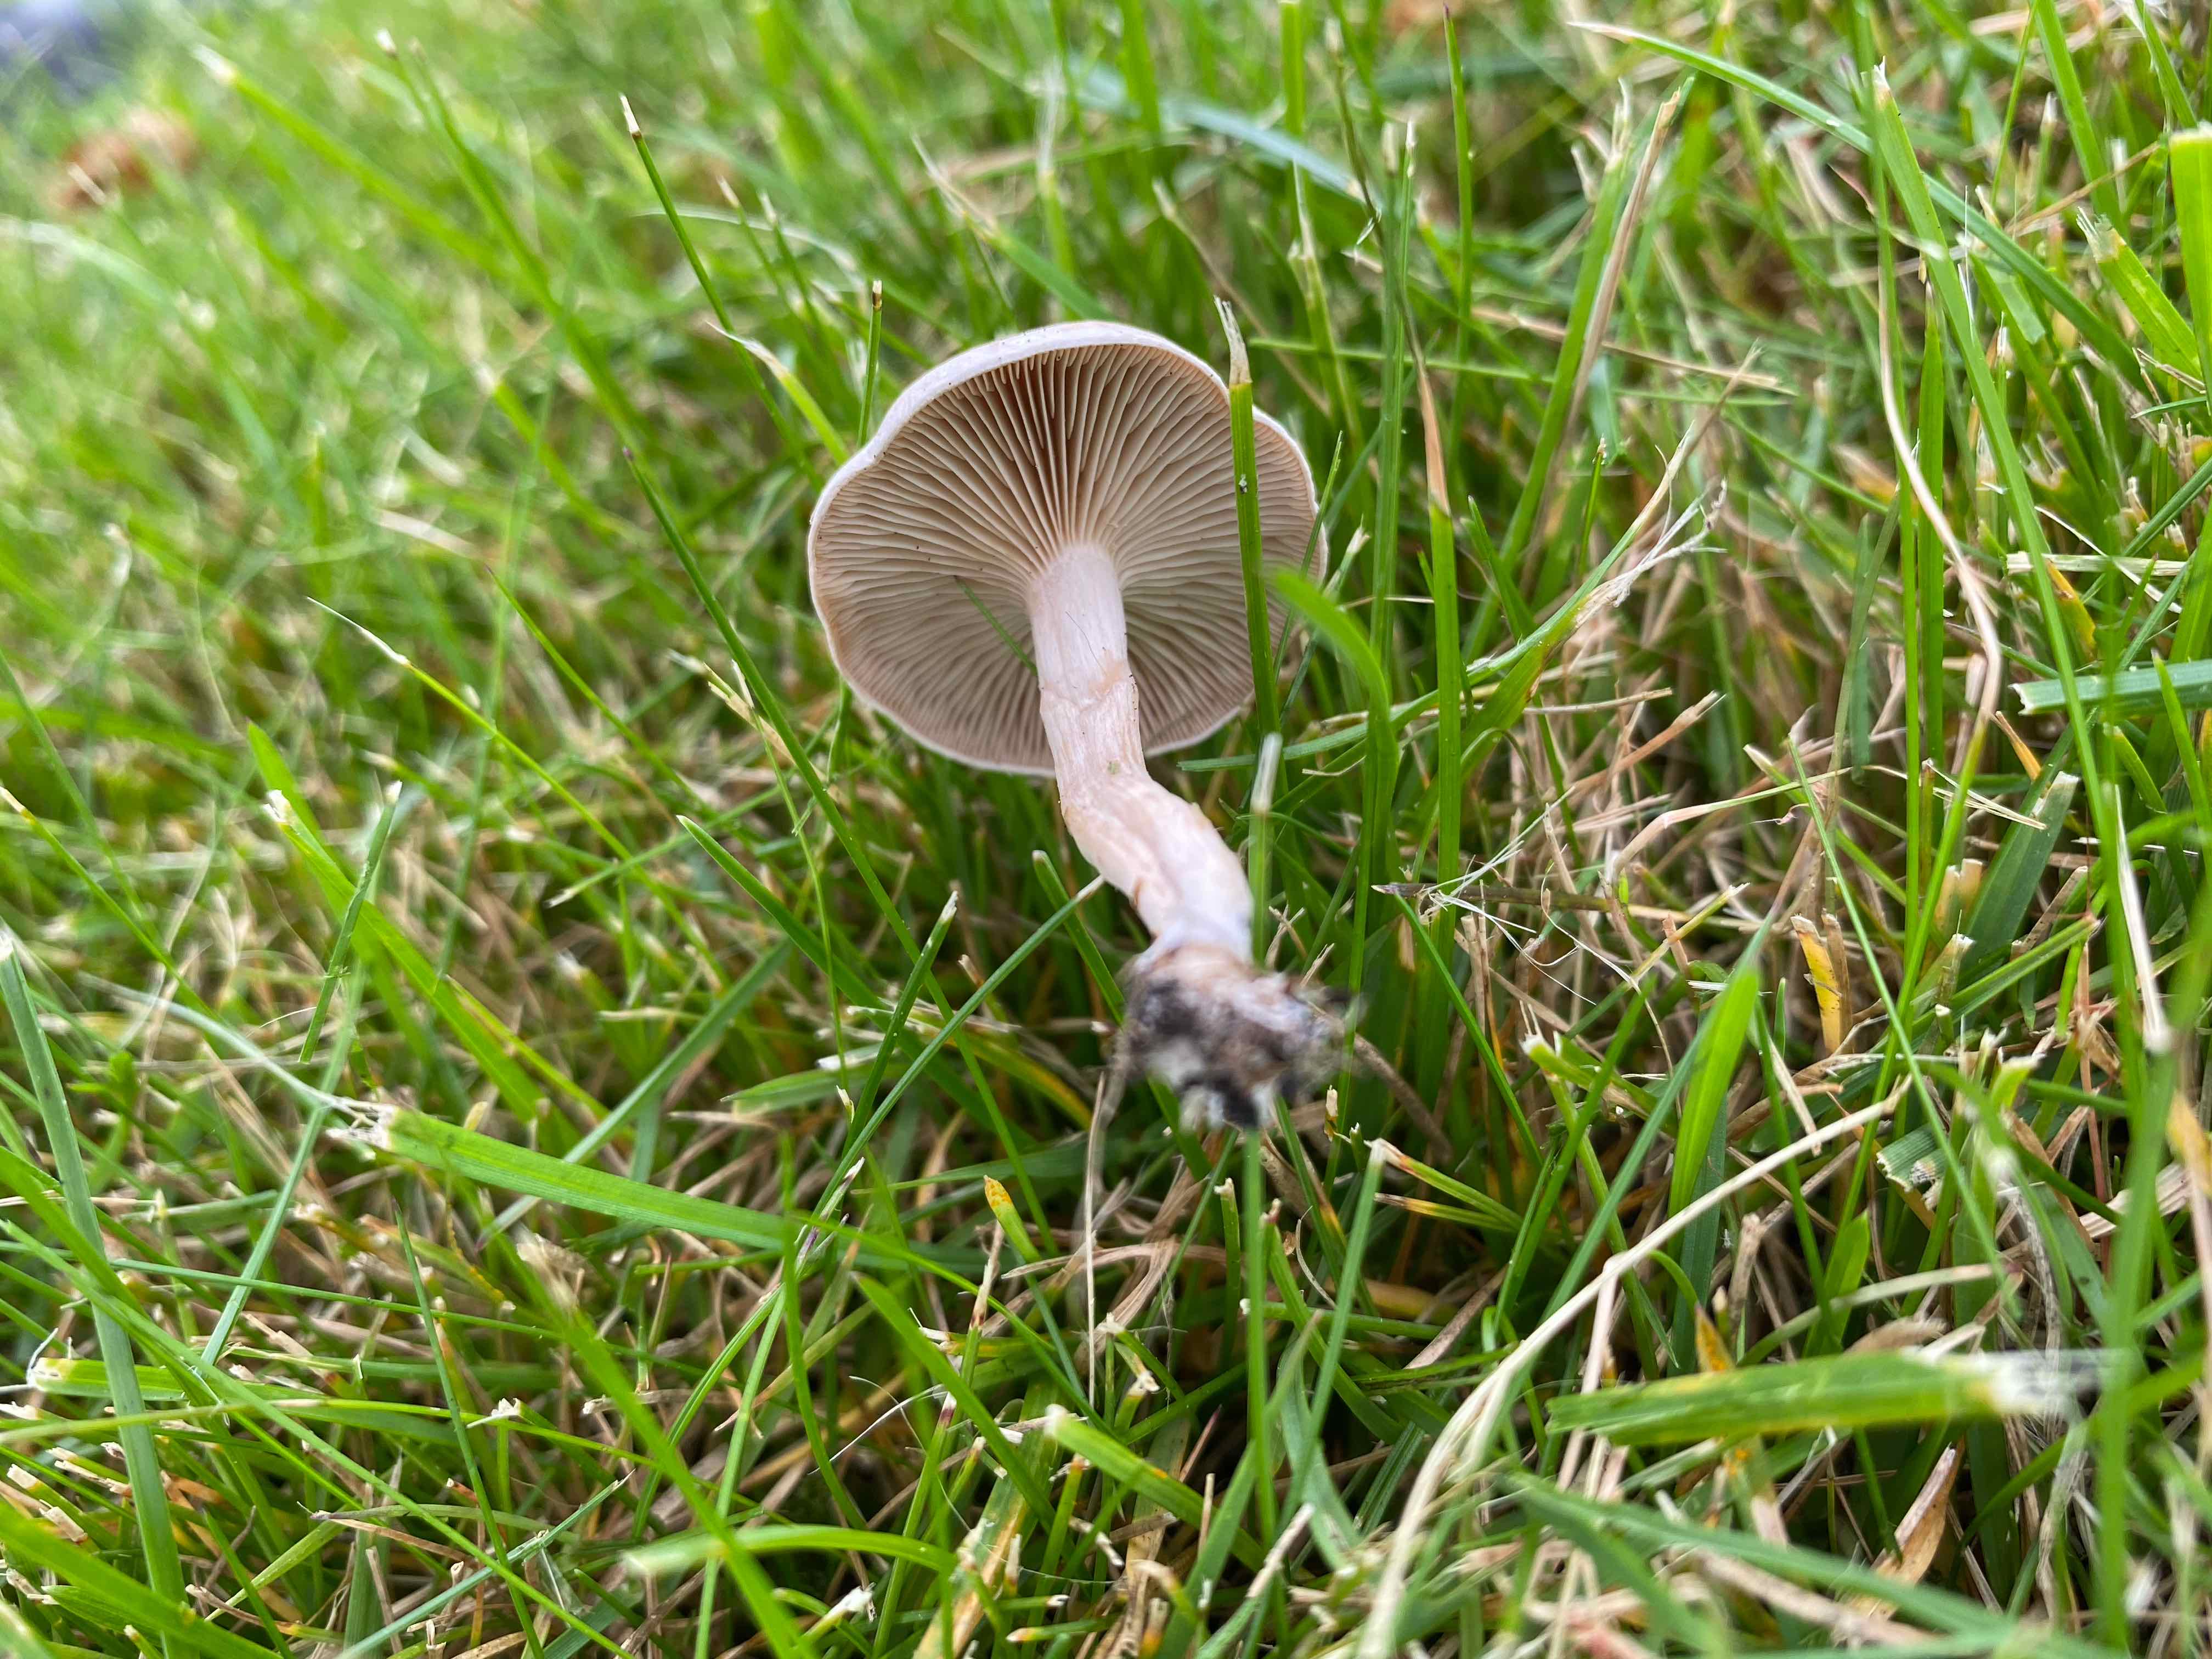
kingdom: Fungi
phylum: Basidiomycota
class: Agaricomycetes
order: Agaricales
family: Tricholomataceae
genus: Clitocybe
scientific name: Clitocybe rivulosa
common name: eng-tragthat
